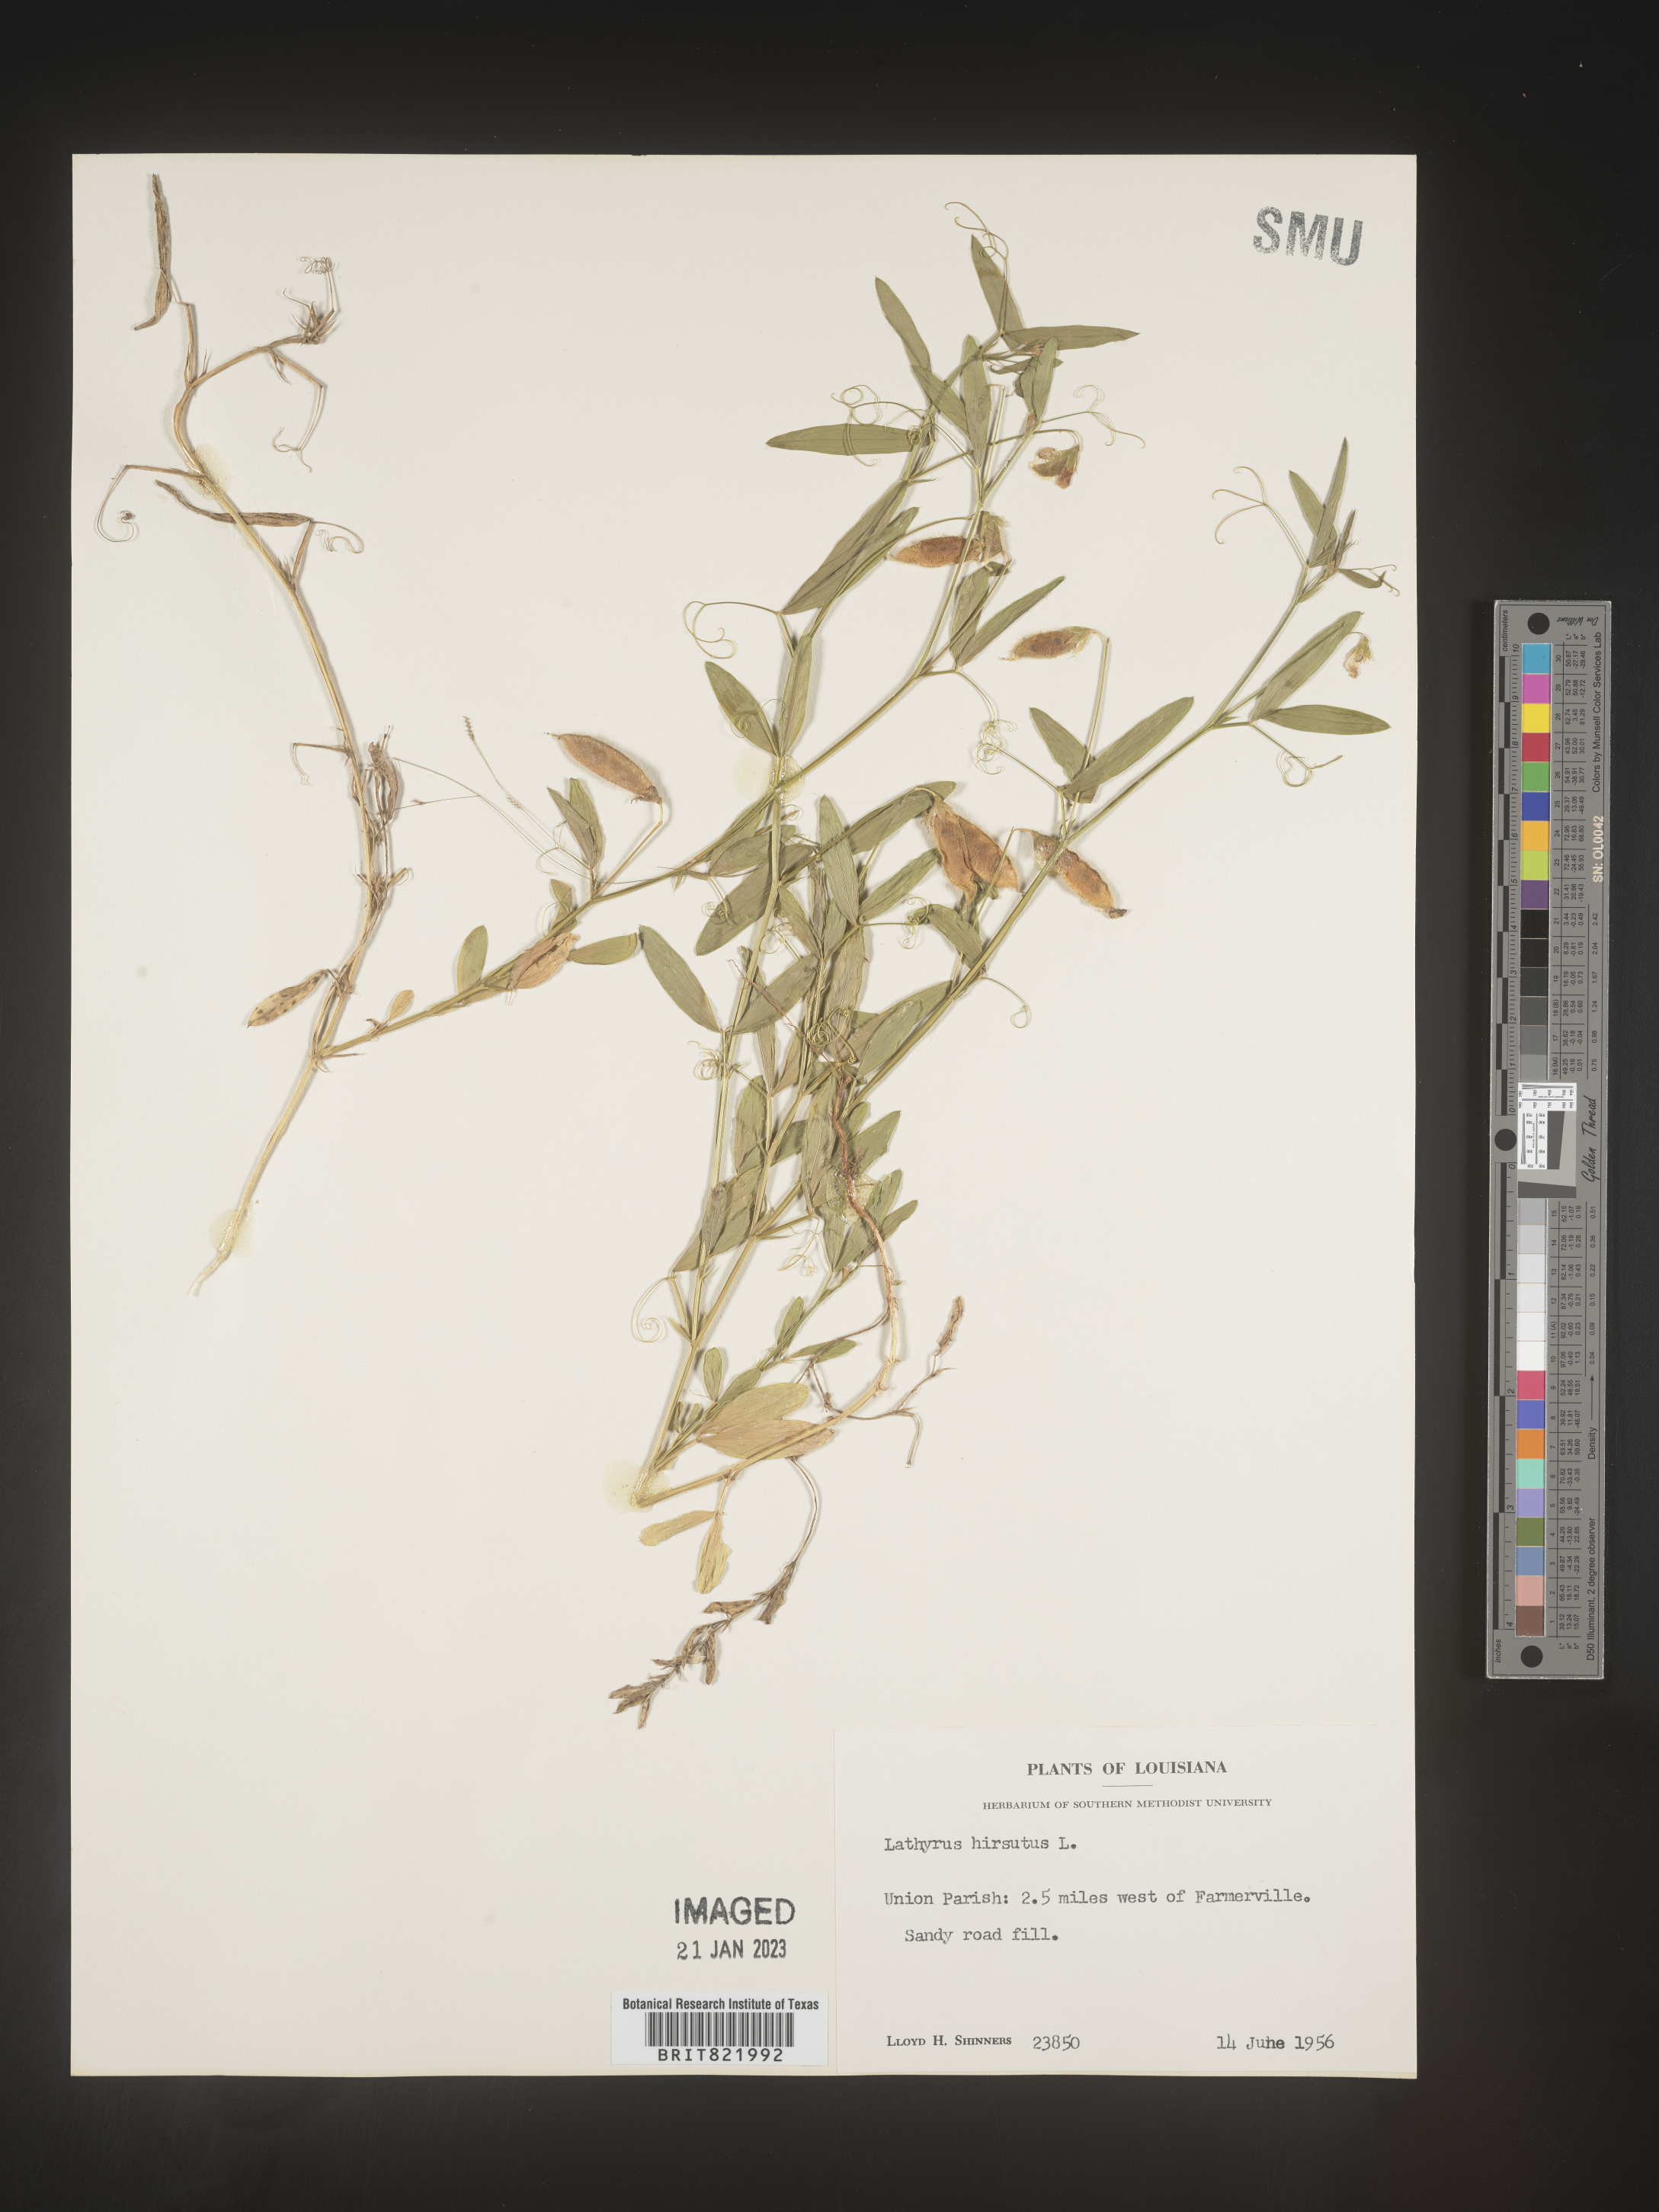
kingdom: Plantae
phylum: Tracheophyta
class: Magnoliopsida
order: Fabales
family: Fabaceae
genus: Lathyrus
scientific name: Lathyrus hirsutus
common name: Hairy vetchling
